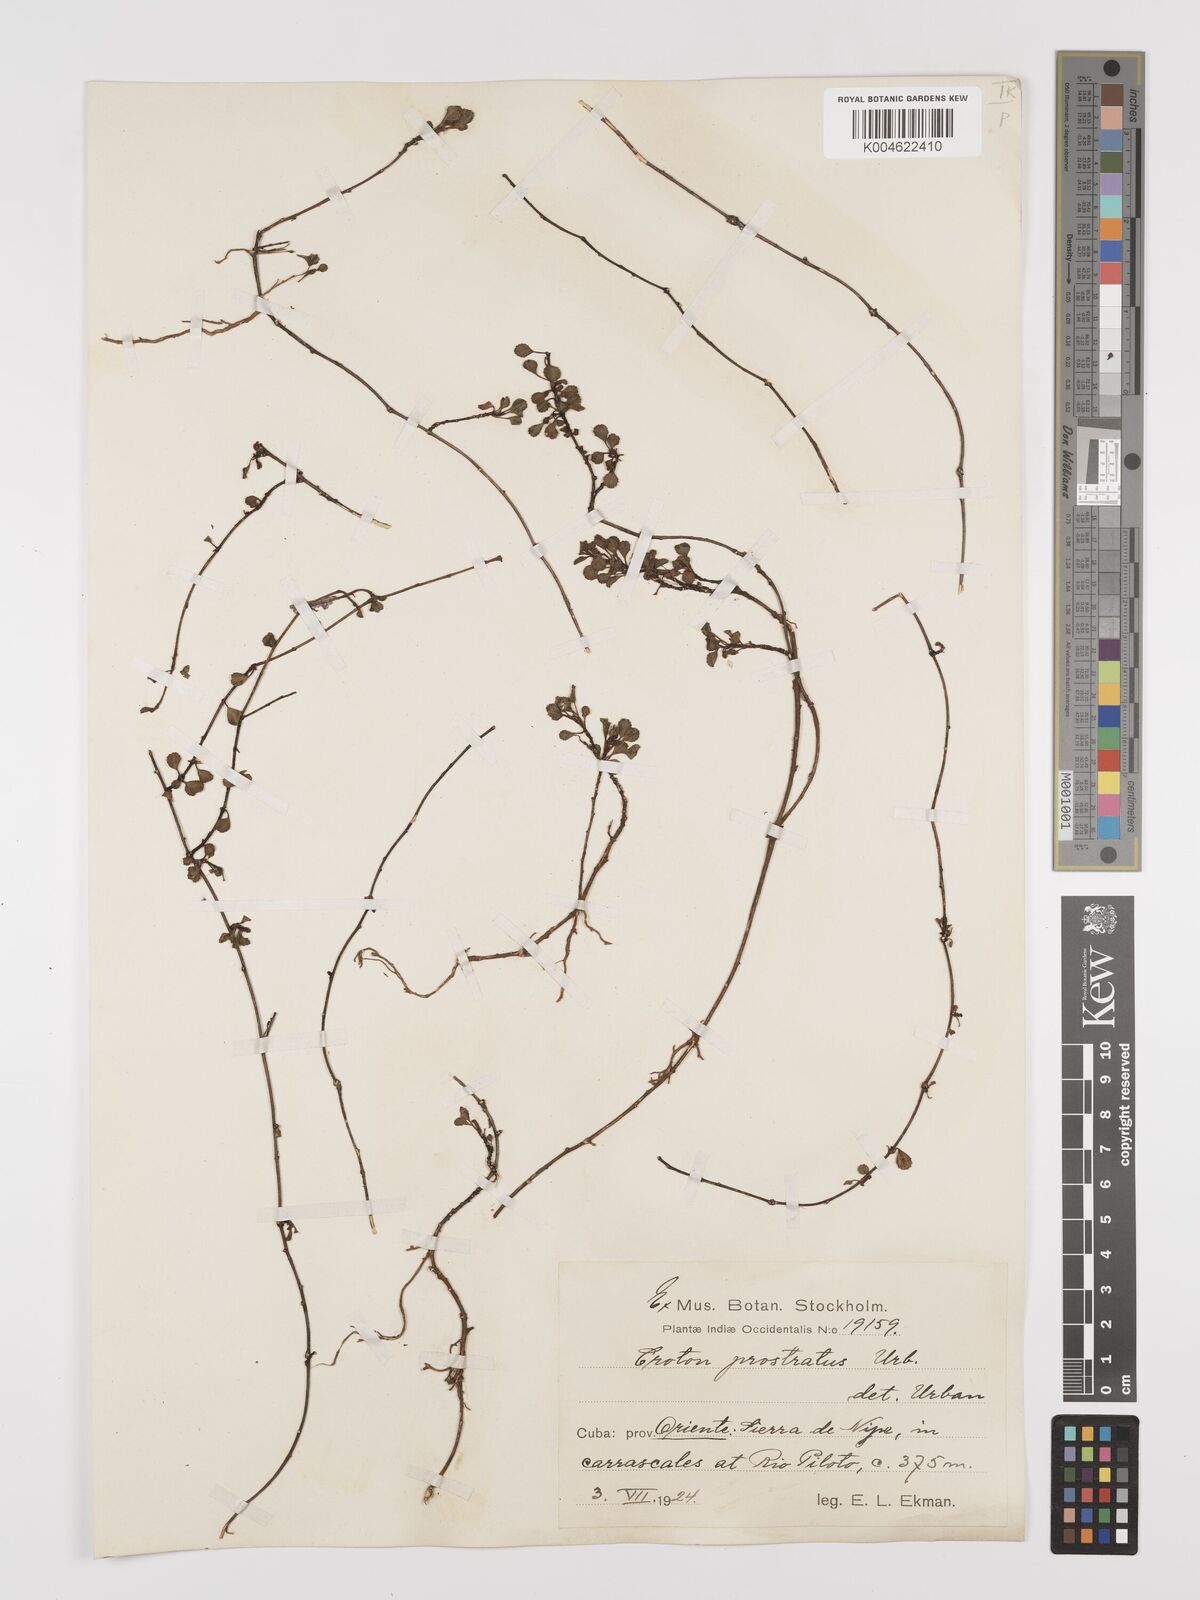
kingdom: Plantae
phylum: Tracheophyta
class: Magnoliopsida
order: Malpighiales
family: Euphorbiaceae
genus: Croton
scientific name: Croton prostratus
